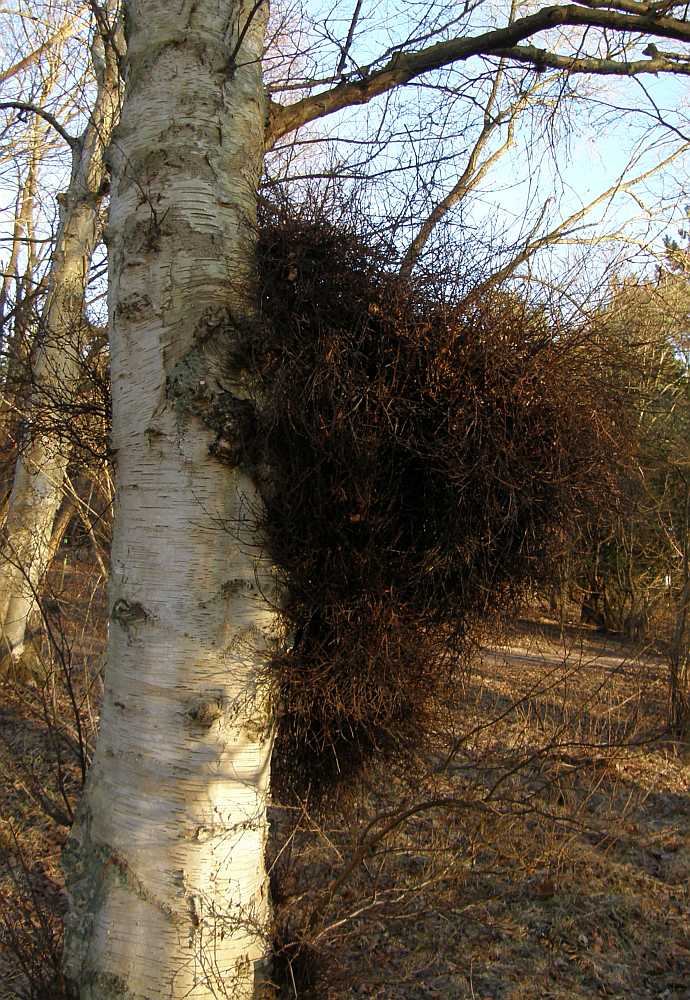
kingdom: Fungi
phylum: Ascomycota
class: Taphrinomycetes
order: Taphrinales
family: Taphrinaceae
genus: Taphrina
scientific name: Taphrina betulina
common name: hekse-sækdug
